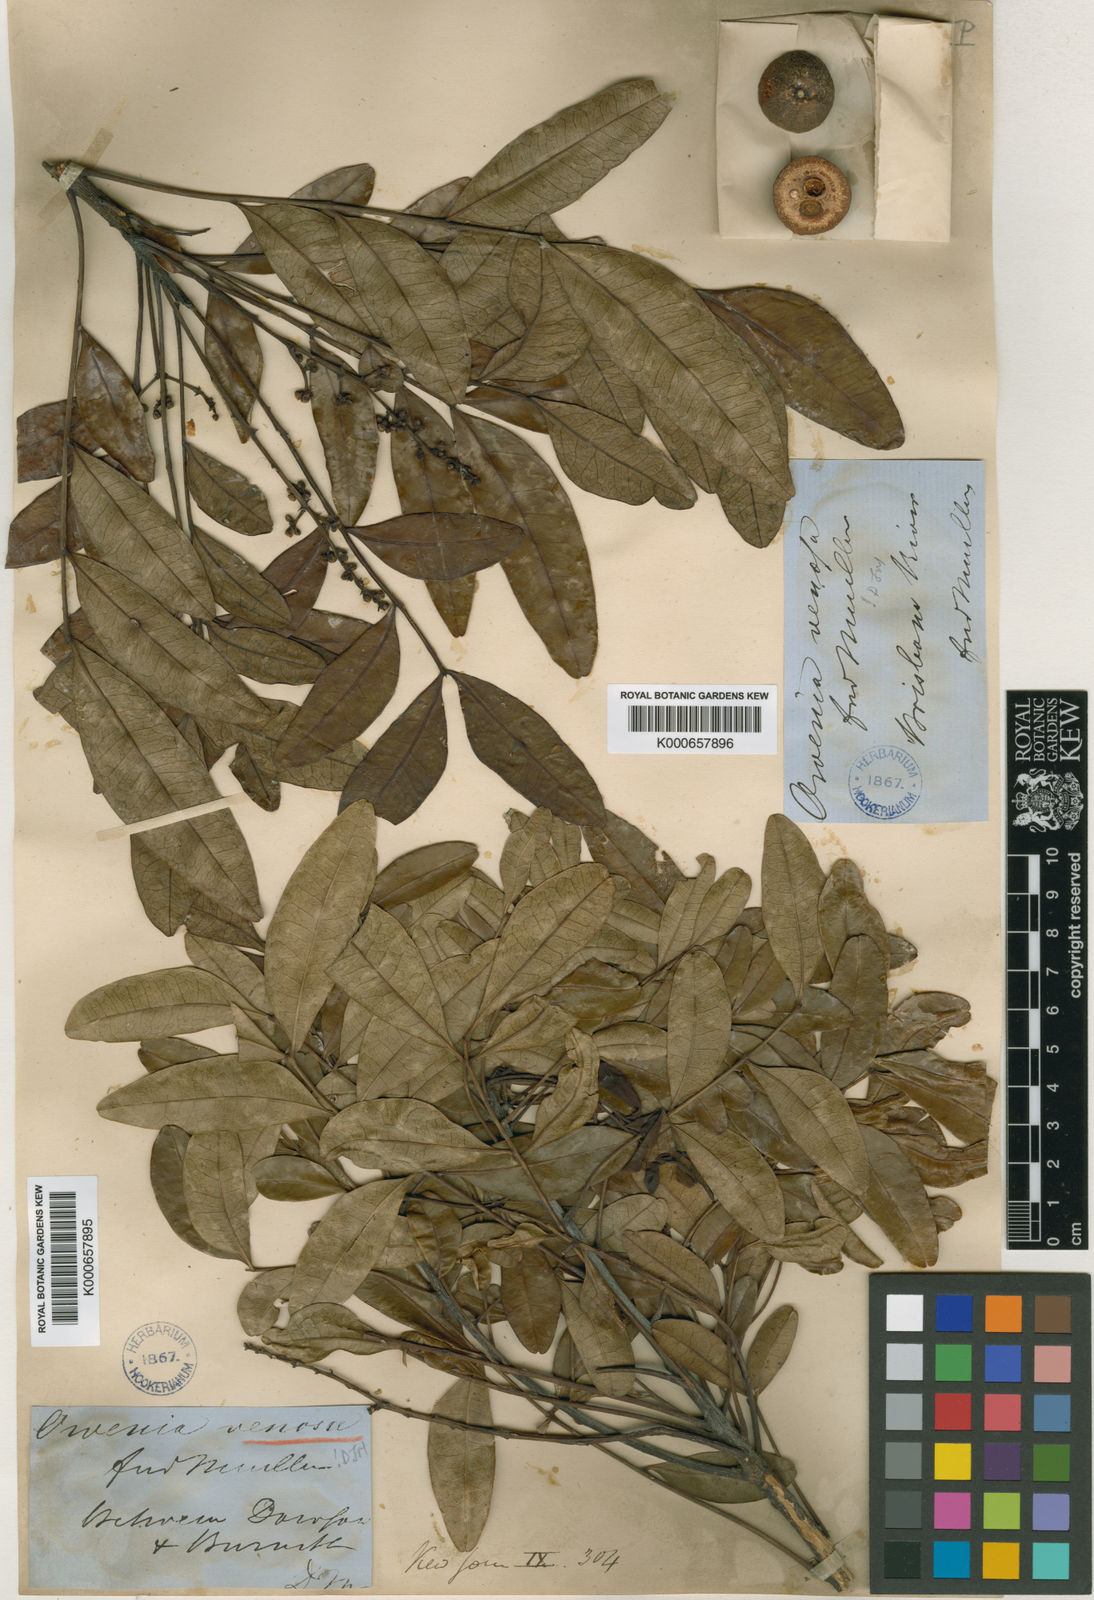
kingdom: Plantae
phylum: Tracheophyta
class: Magnoliopsida
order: Sapindales
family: Meliaceae
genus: Owenia
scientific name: Owenia venosa
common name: Crow's-apple
